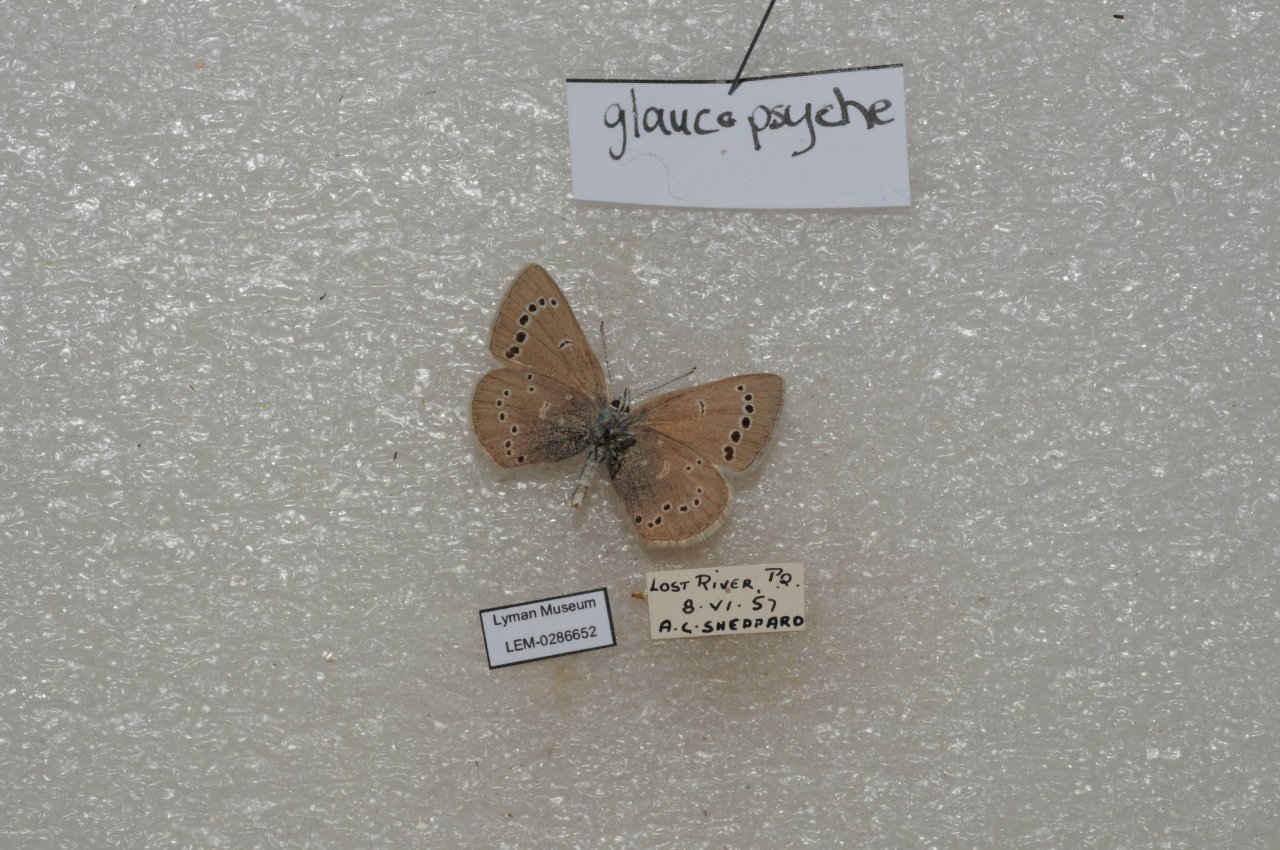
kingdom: Animalia
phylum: Arthropoda
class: Insecta
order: Lepidoptera
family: Lycaenidae
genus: Glaucopsyche
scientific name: Glaucopsyche lygdamus
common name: Silvery Blue
